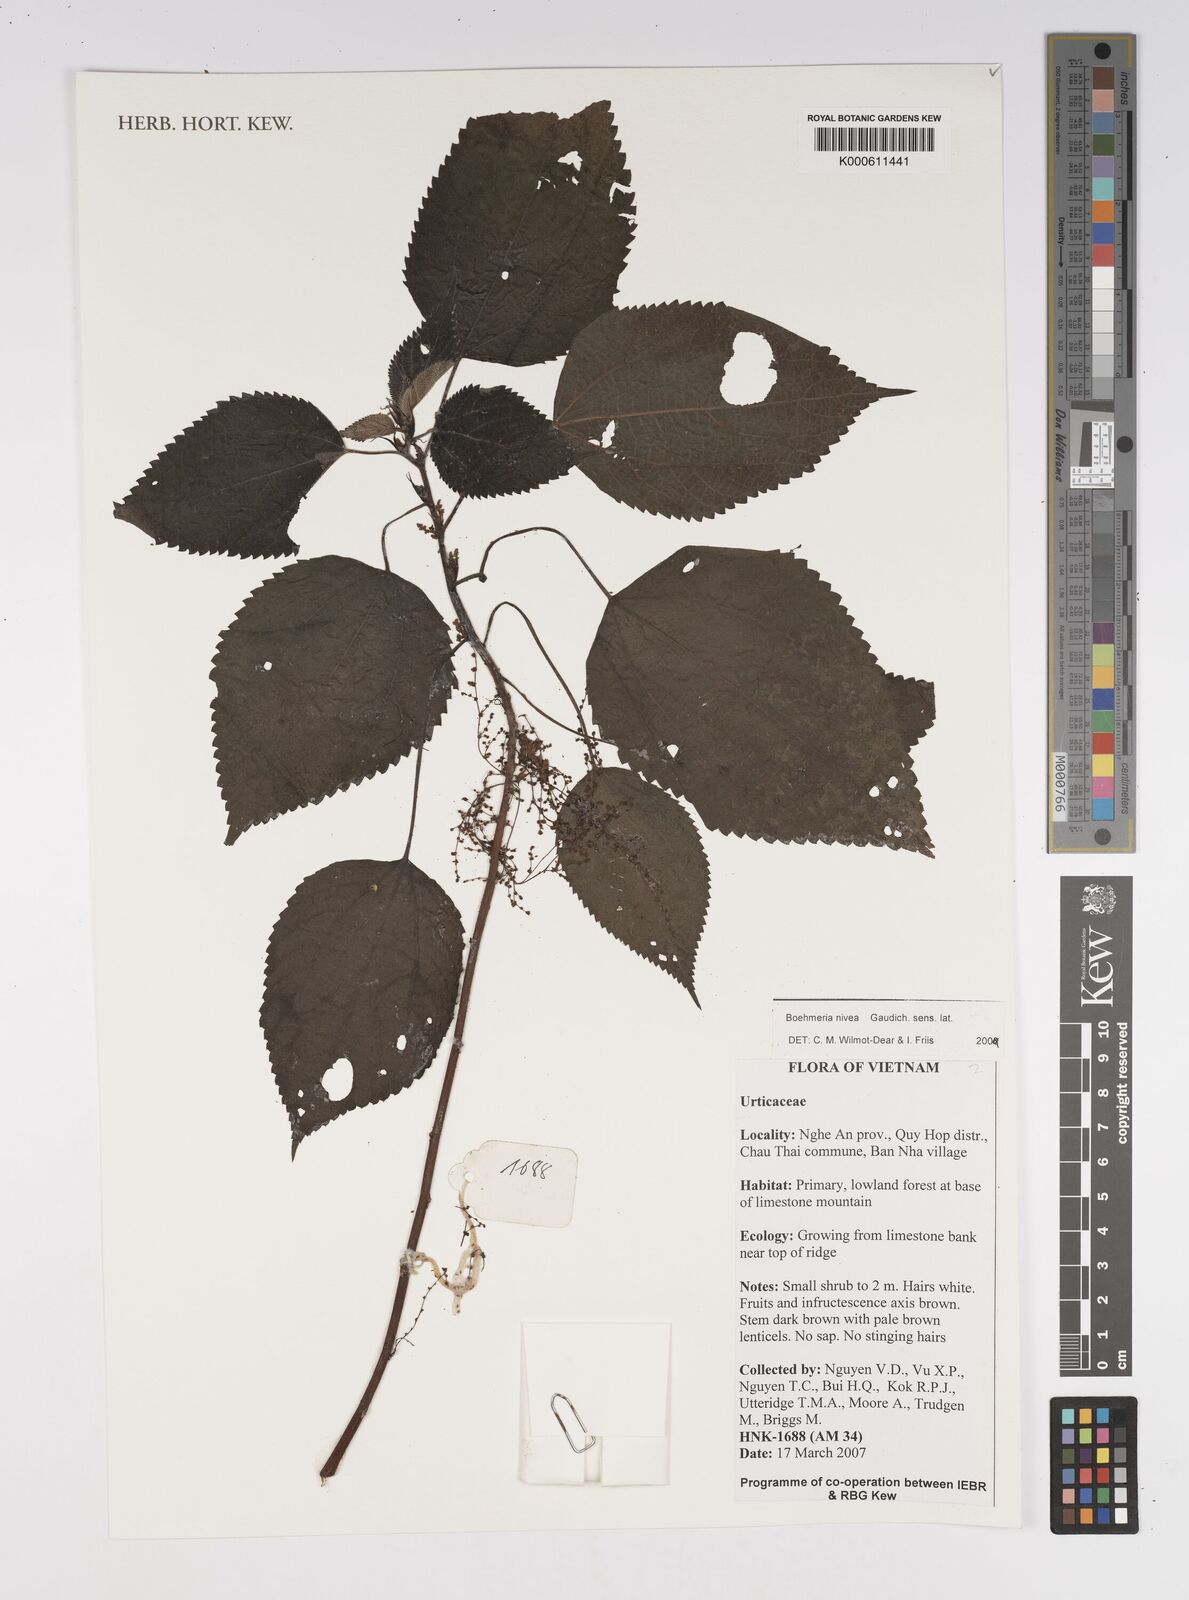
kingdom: Plantae
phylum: Tracheophyta
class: Magnoliopsida
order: Rosales
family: Urticaceae
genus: Boehmeria
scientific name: Boehmeria nivea
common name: Ramie chinese grass
